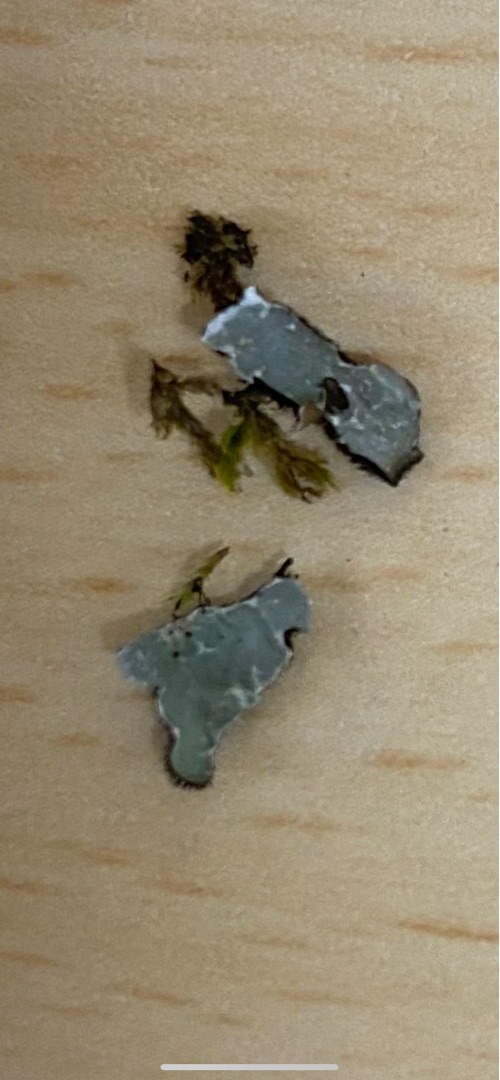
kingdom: Fungi
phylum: Ascomycota
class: Lecanoromycetes
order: Lecanorales
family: Parmeliaceae
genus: Parmelia
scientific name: Parmelia sulcata
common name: Rynket skållav
